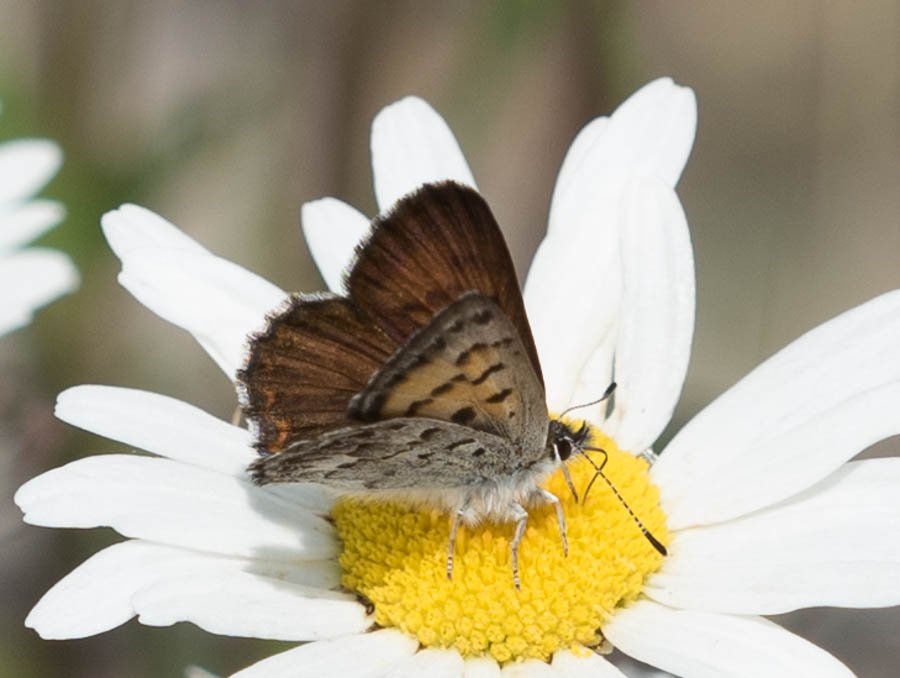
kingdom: Animalia
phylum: Arthropoda
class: Insecta
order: Lepidoptera
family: Lycaenidae
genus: Lycaena
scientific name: Lycaena mariposa
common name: Mariposa Copper
